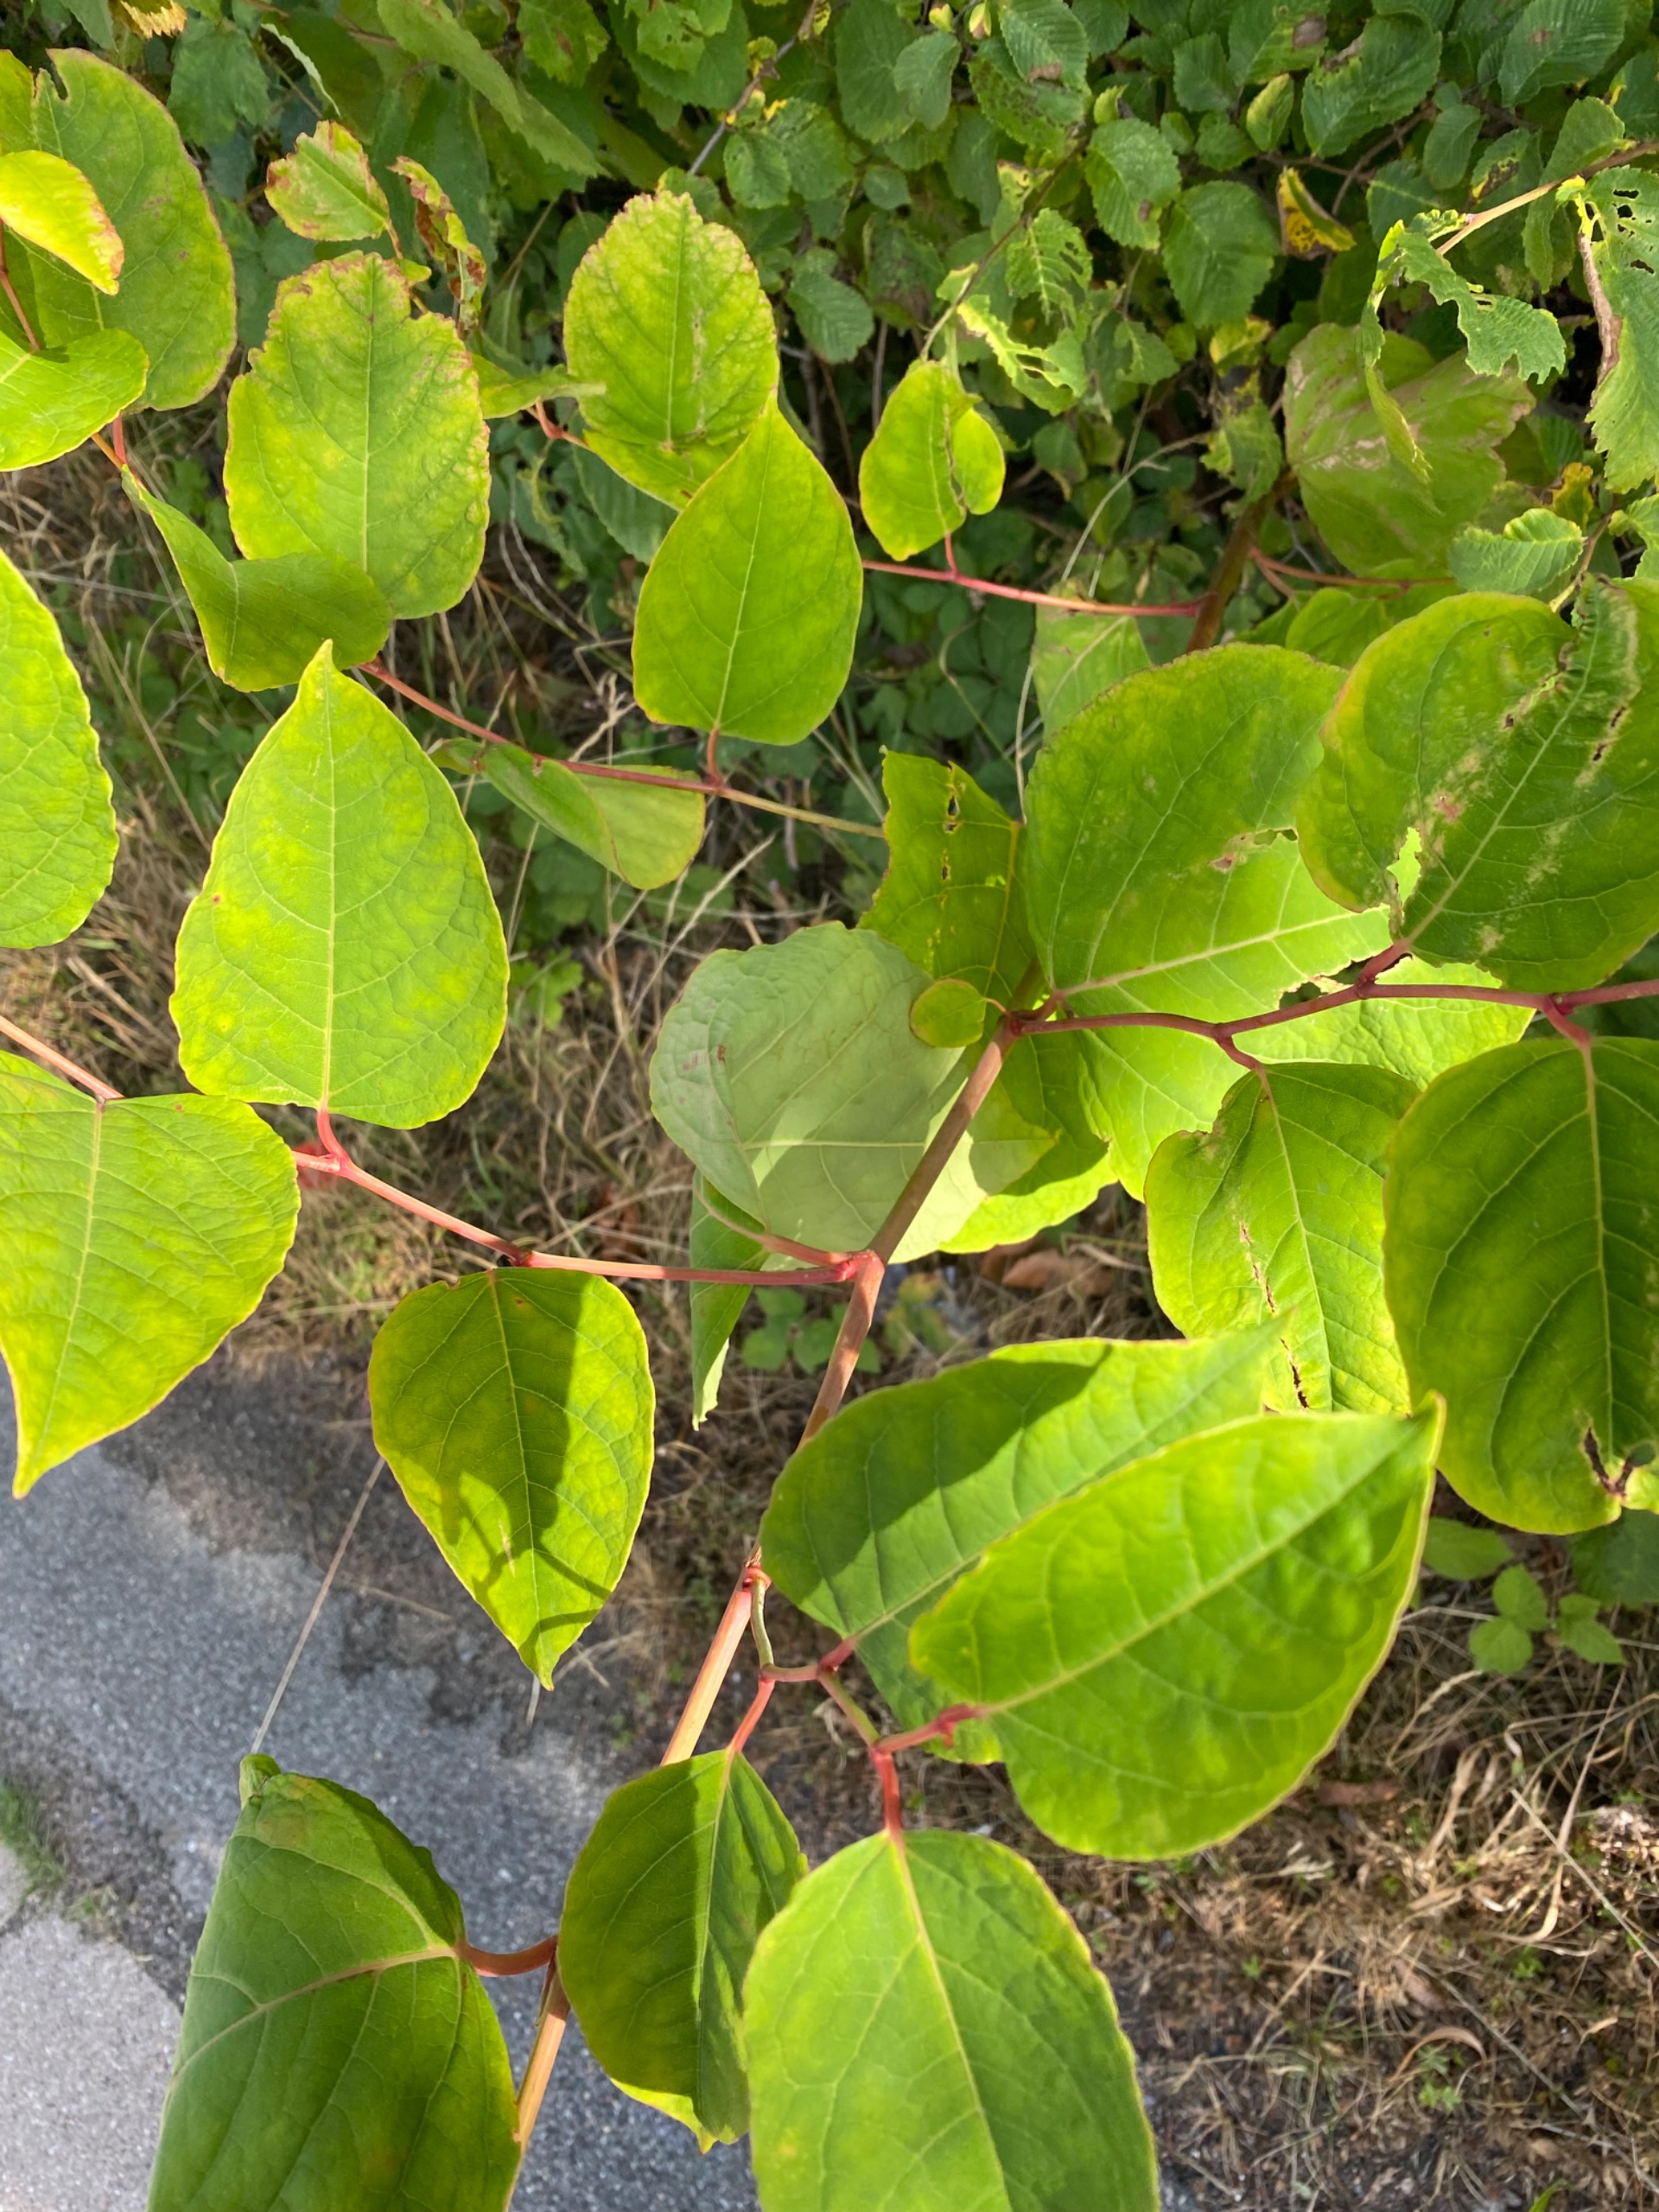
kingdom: Plantae
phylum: Tracheophyta
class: Magnoliopsida
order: Caryophyllales
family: Polygonaceae
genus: Reynoutria
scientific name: Reynoutria japonica
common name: Japan-pileurt
